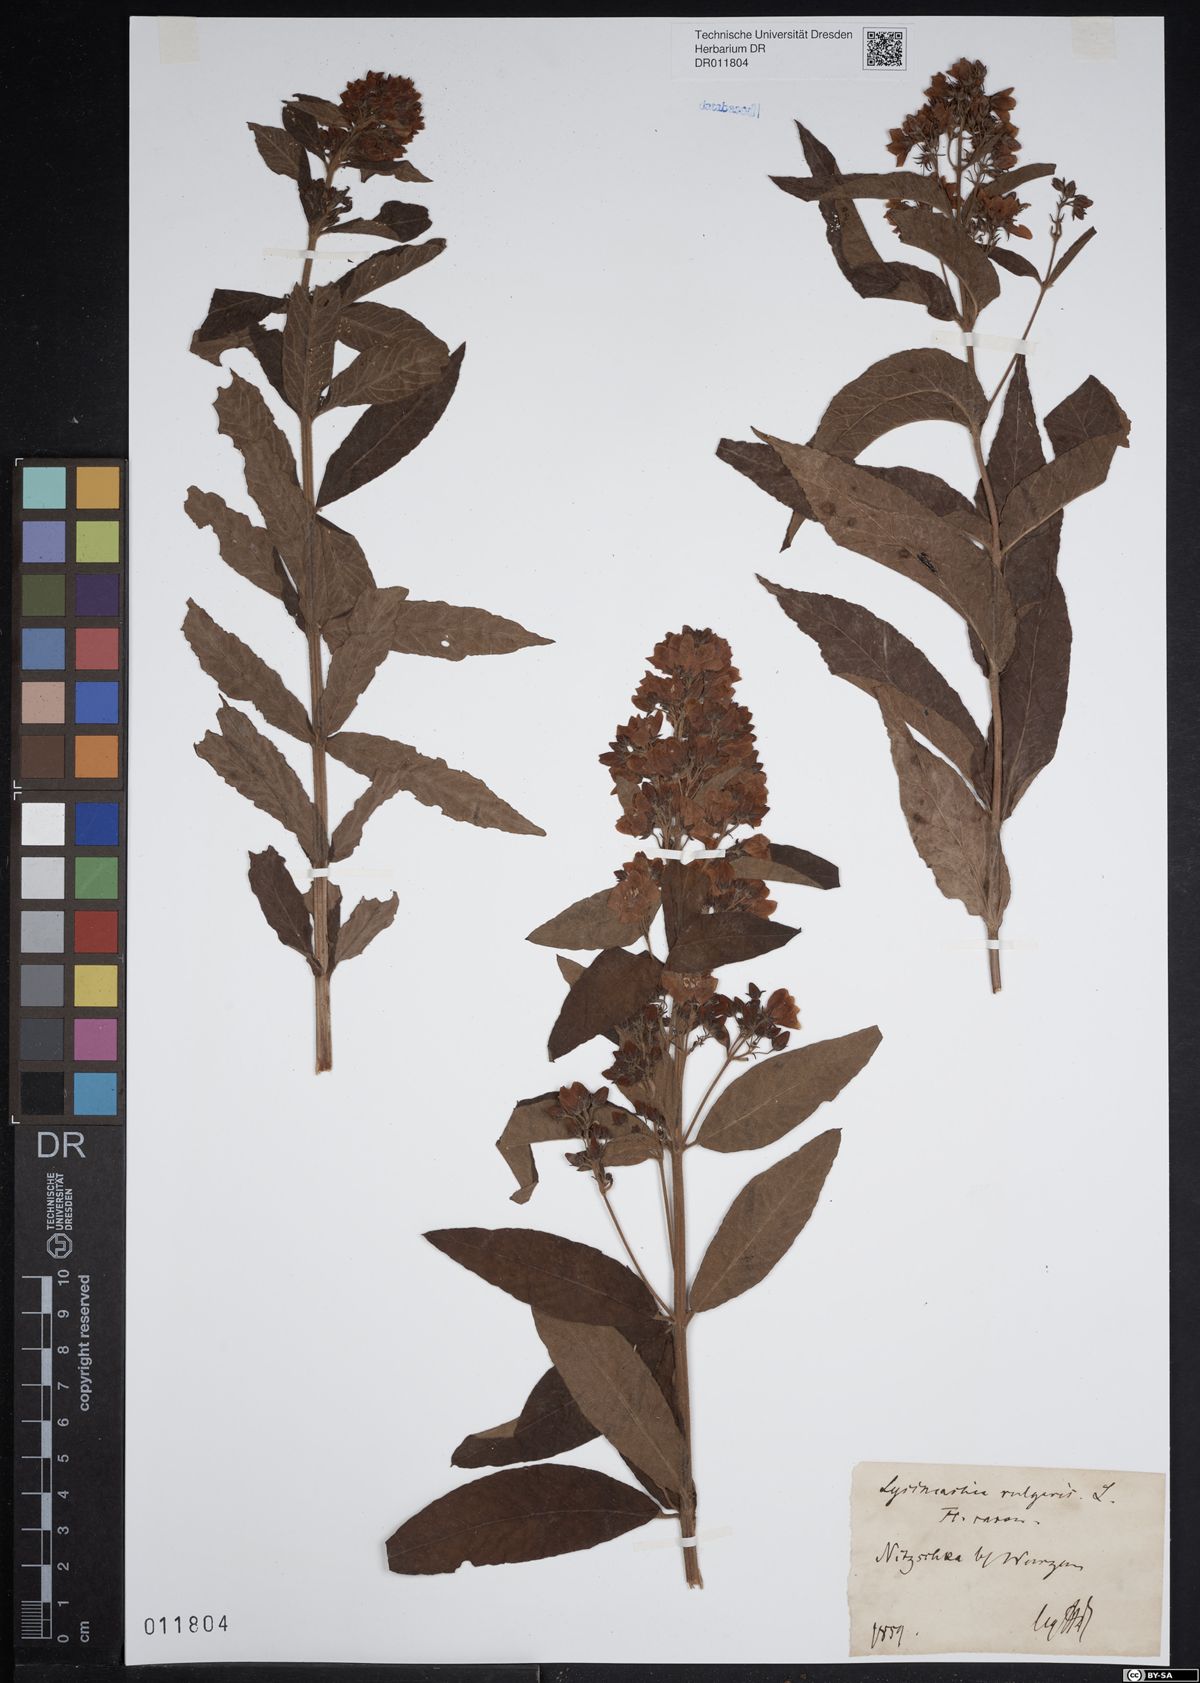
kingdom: Plantae
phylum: Tracheophyta
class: Magnoliopsida
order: Ericales
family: Primulaceae
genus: Lysimachia
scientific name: Lysimachia vulgaris
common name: Yellow loosestrife
